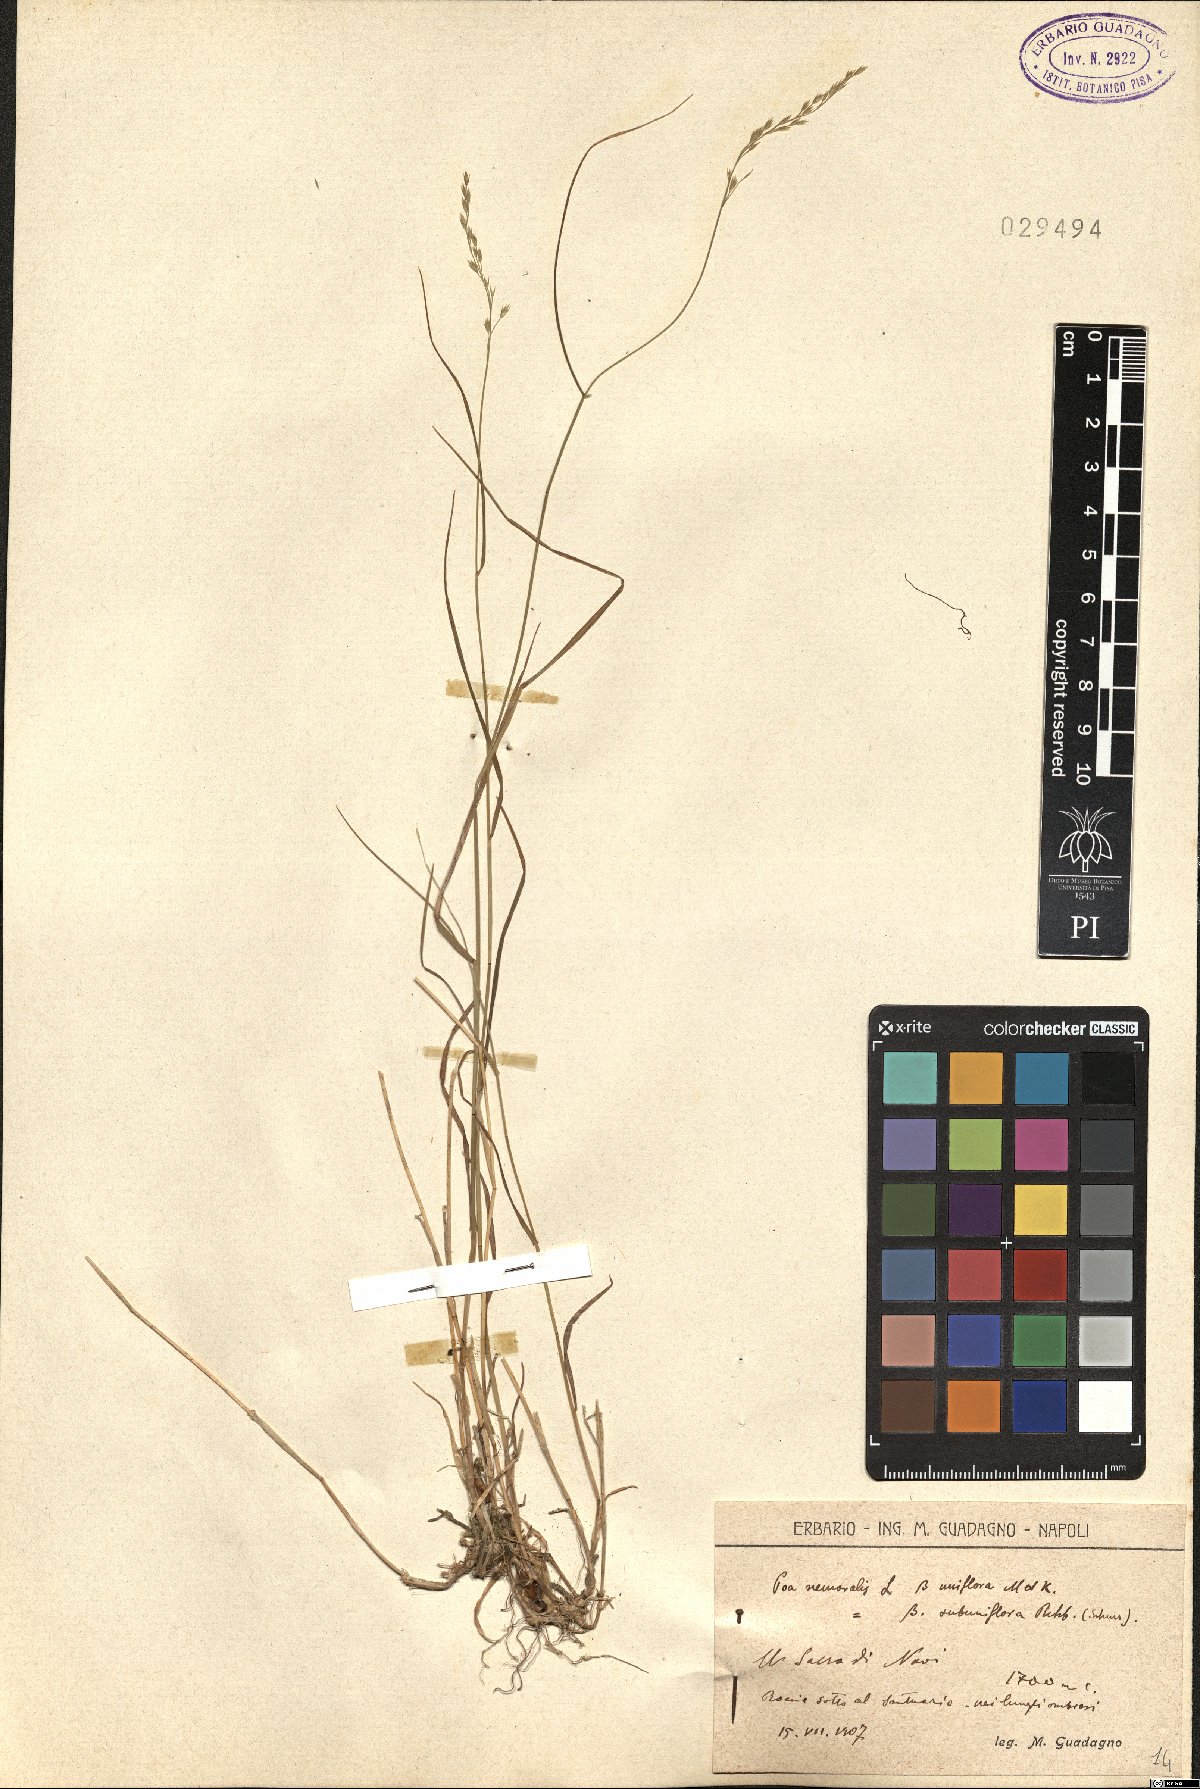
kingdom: Plantae
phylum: Tracheophyta
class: Liliopsida
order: Poales
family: Poaceae
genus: Poa
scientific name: Poa nemoralis
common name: Wood bluegrass
